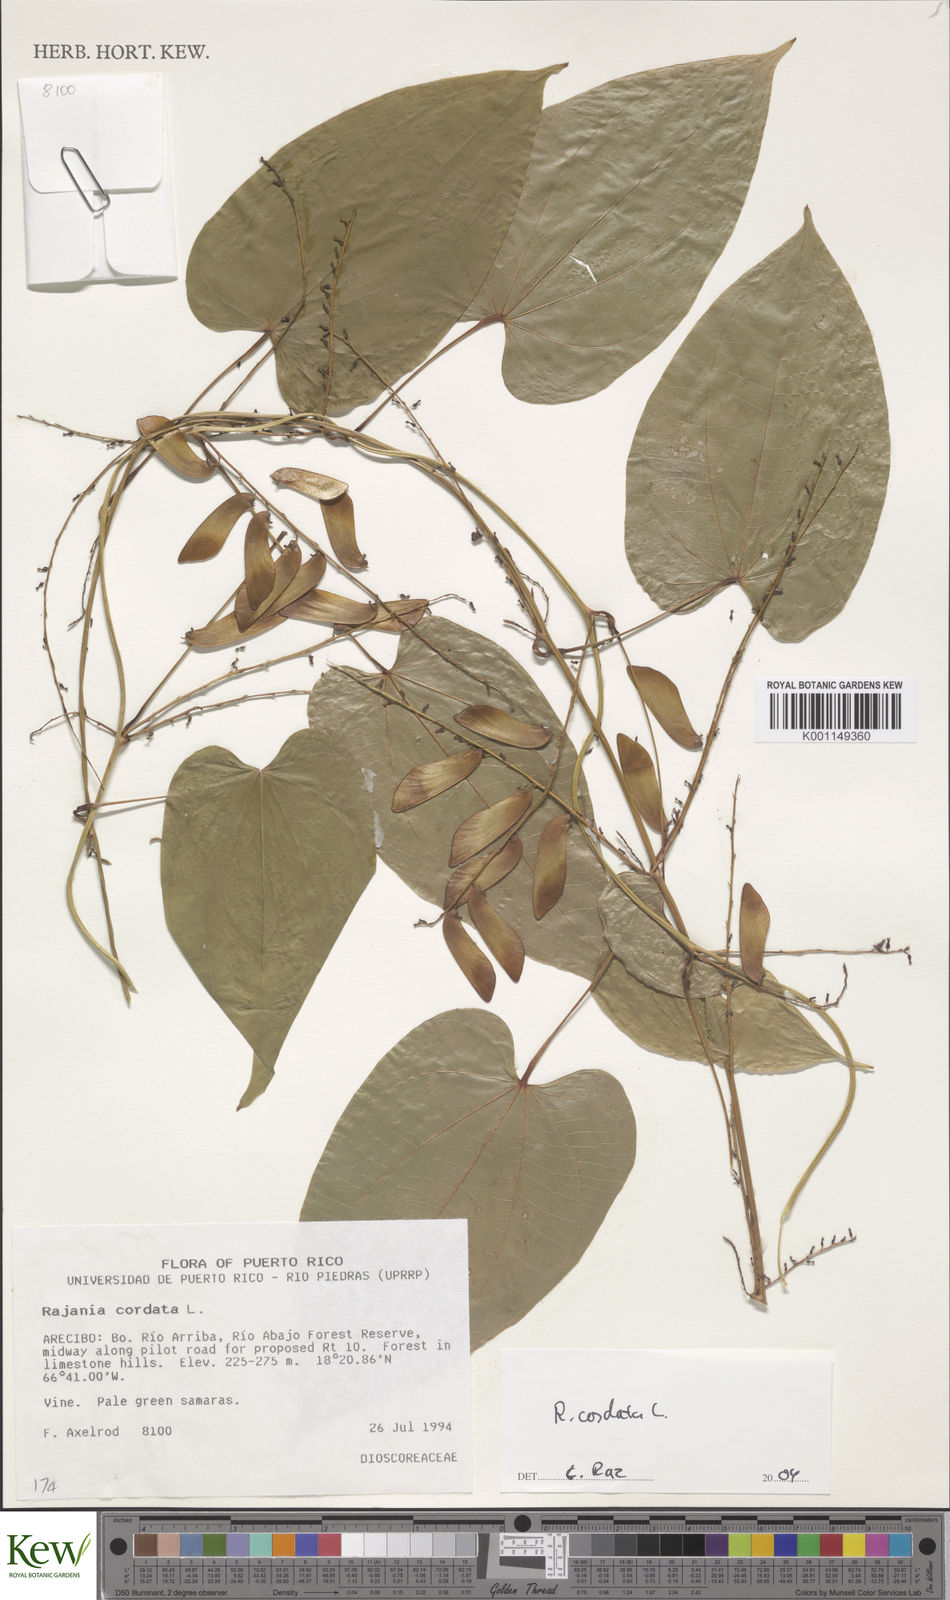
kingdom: Plantae
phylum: Tracheophyta
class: Liliopsida
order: Dioscoreales
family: Dioscoreaceae
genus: Dioscorea
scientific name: Dioscorea
